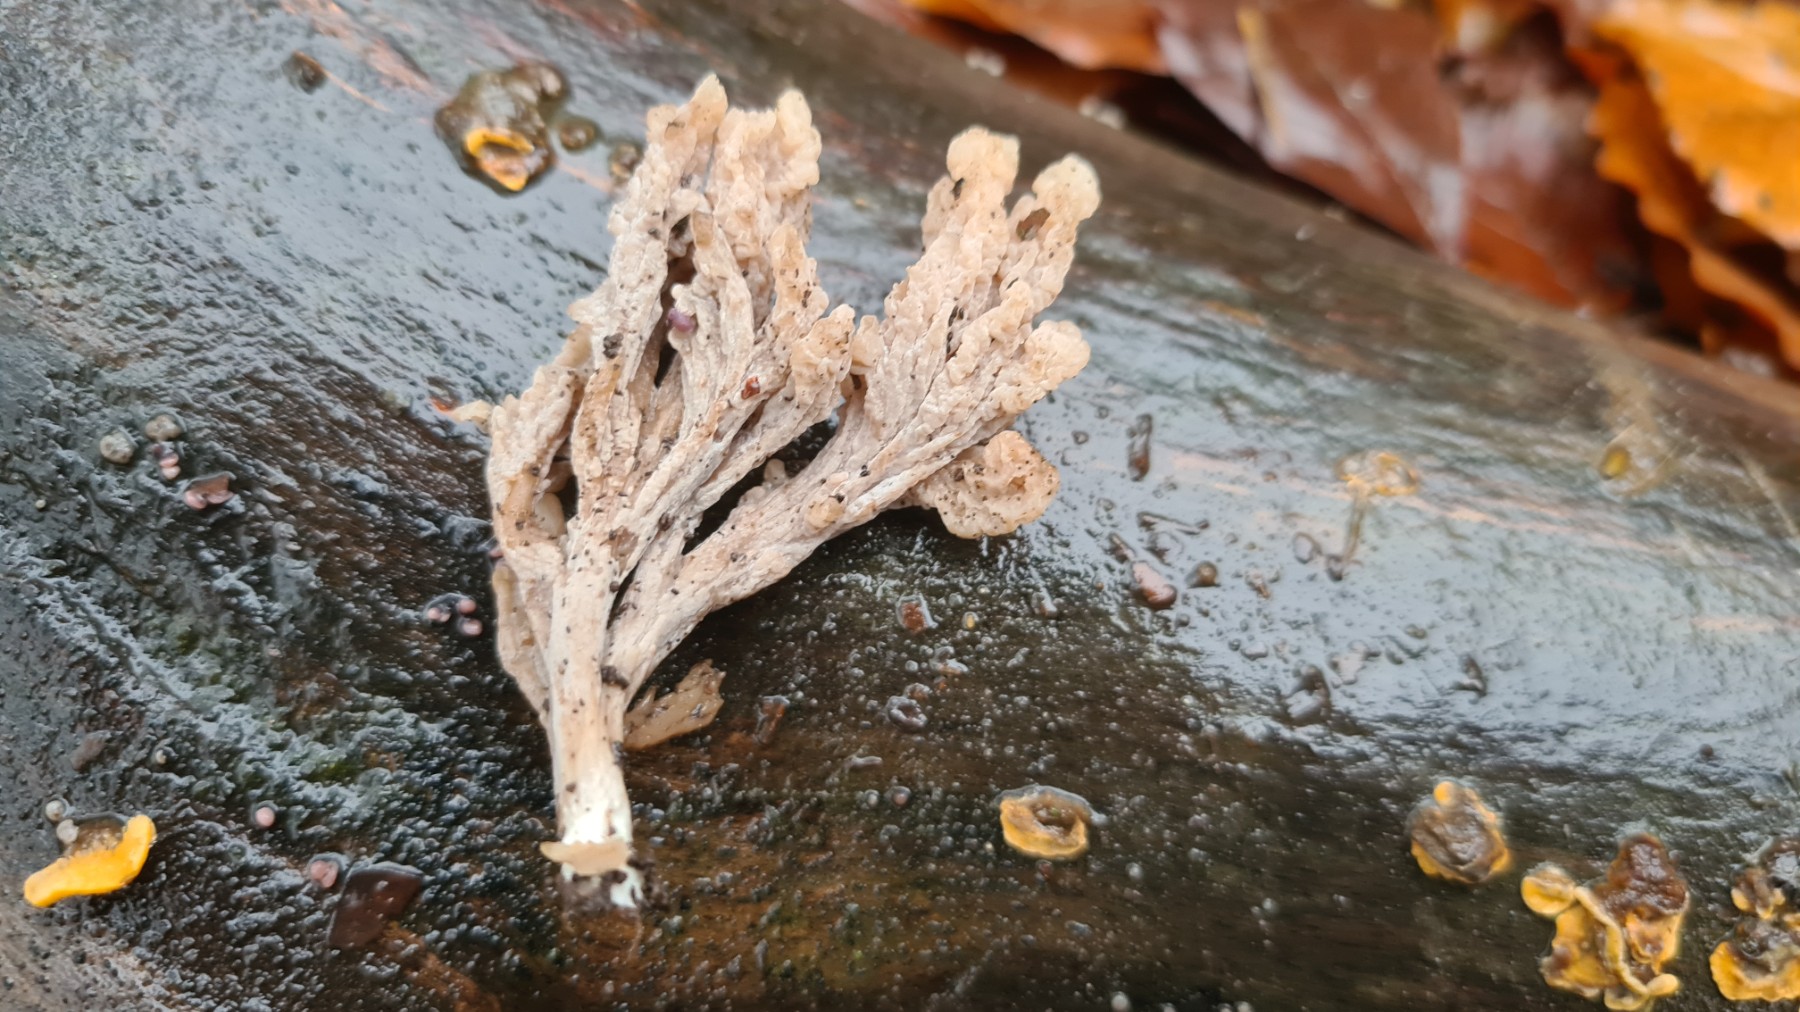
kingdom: Fungi
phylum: Basidiomycota
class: Agaricomycetes
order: Cantharellales
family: Hydnaceae
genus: Clavulina
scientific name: Clavulina
